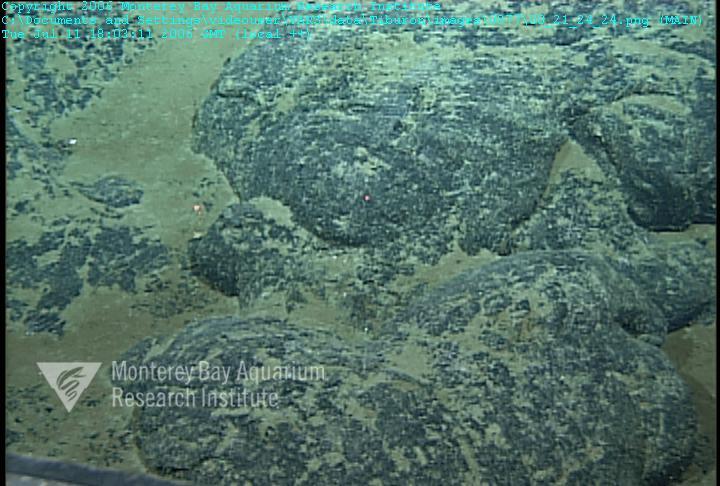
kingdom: Animalia
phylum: Porifera
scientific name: Porifera
